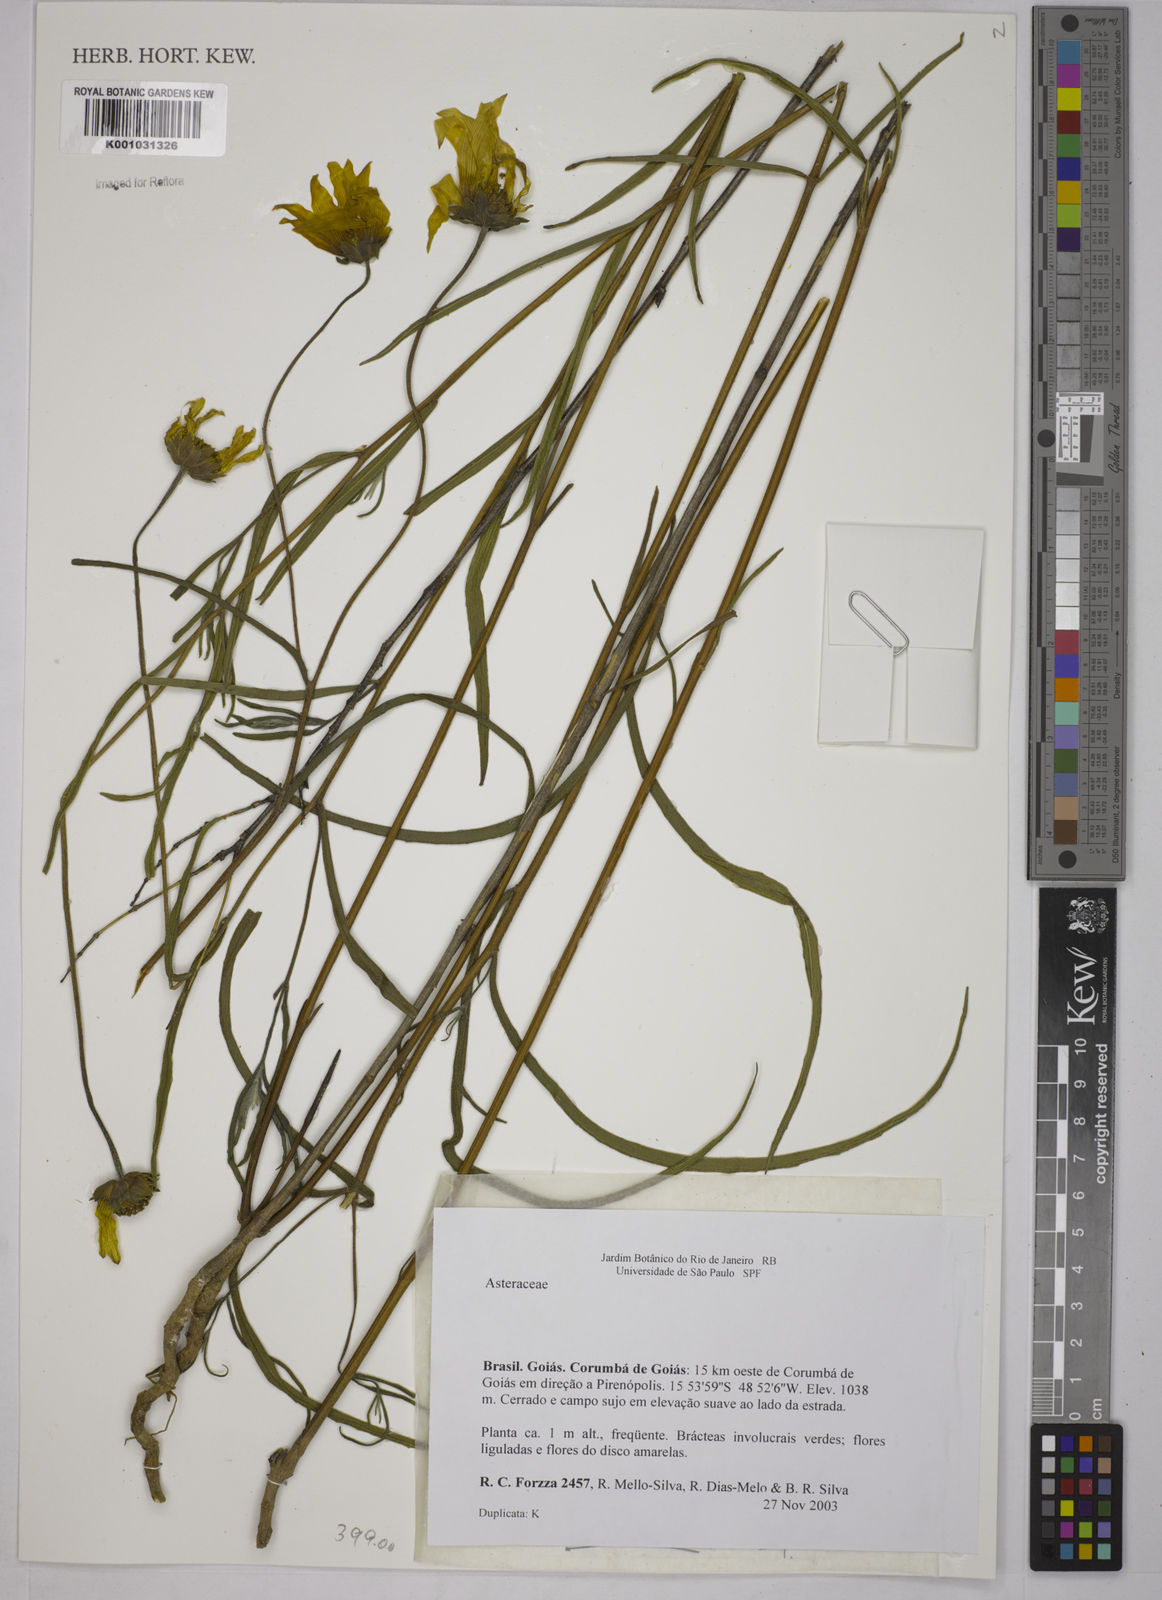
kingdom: Plantae
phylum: Tracheophyta
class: Magnoliopsida
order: Asterales
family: Asteraceae
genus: Aldama
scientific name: Aldama kunthiana
